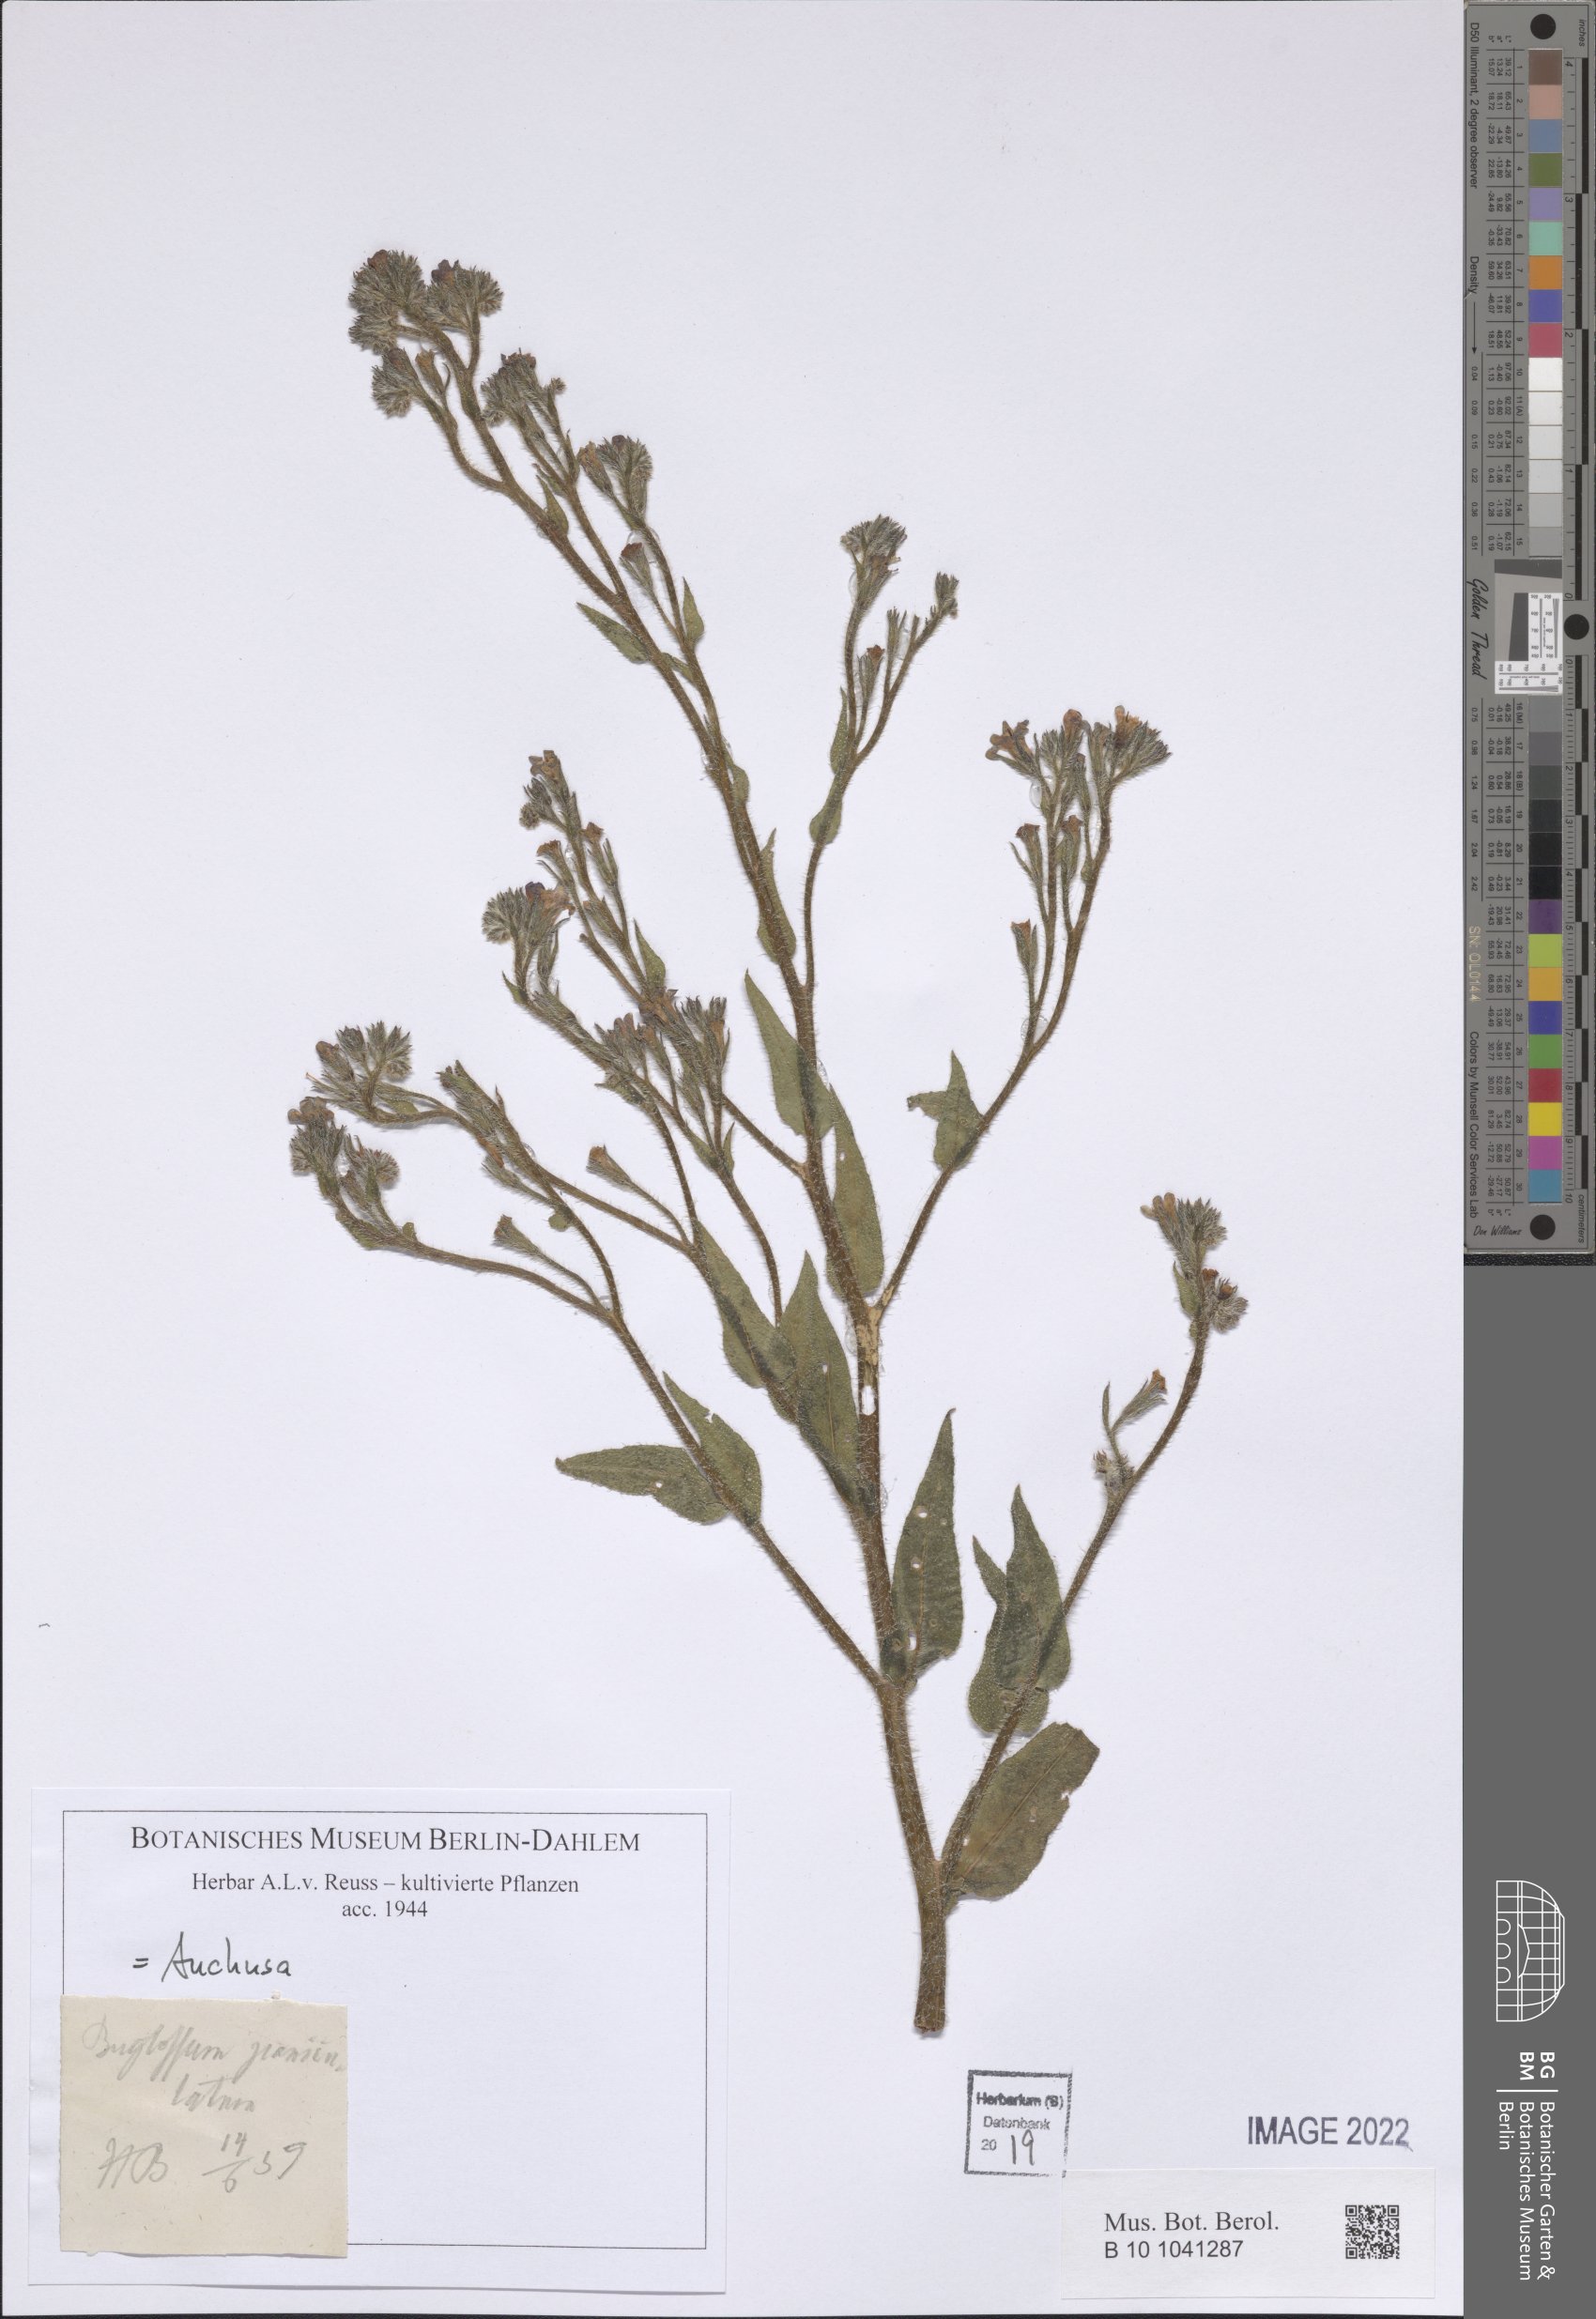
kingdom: Plantae
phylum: Tracheophyta
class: Magnoliopsida
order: Boraginales
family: Boraginaceae
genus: Anchusa
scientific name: Anchusa
